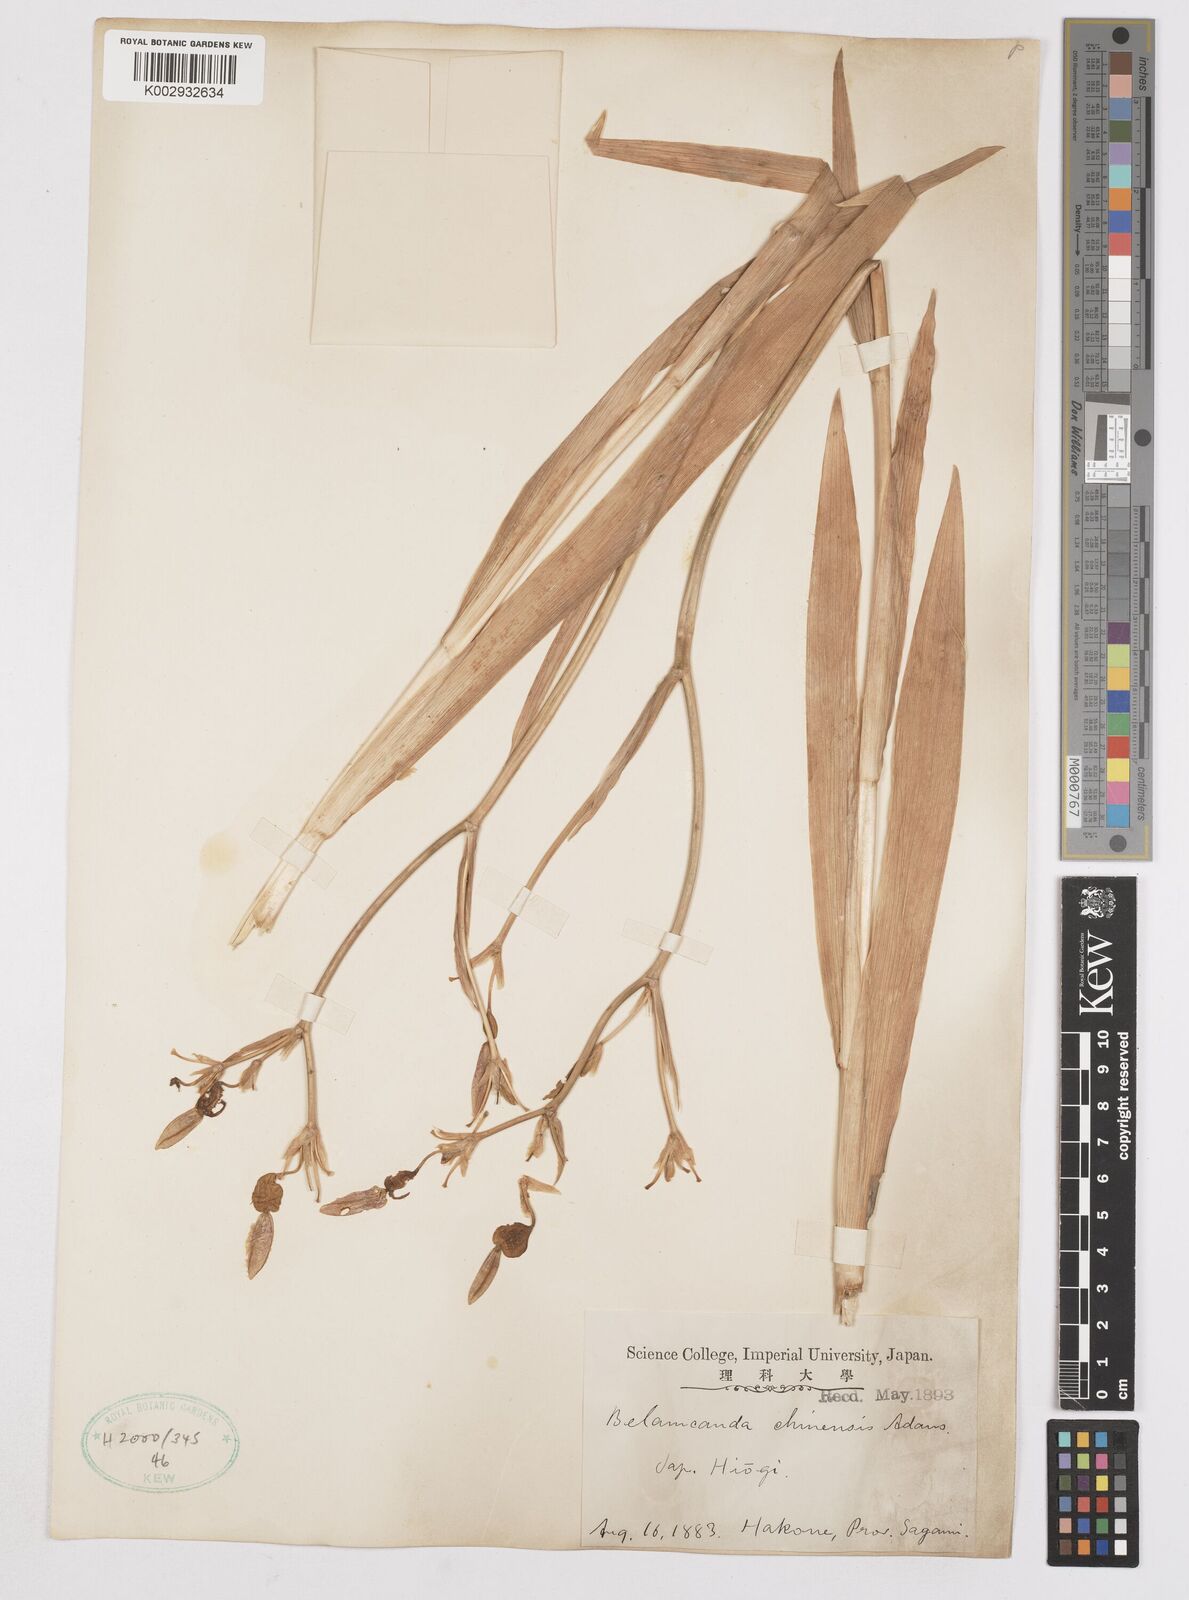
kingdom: Plantae
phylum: Tracheophyta
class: Liliopsida
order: Asparagales
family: Iridaceae
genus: Iris
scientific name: Iris
